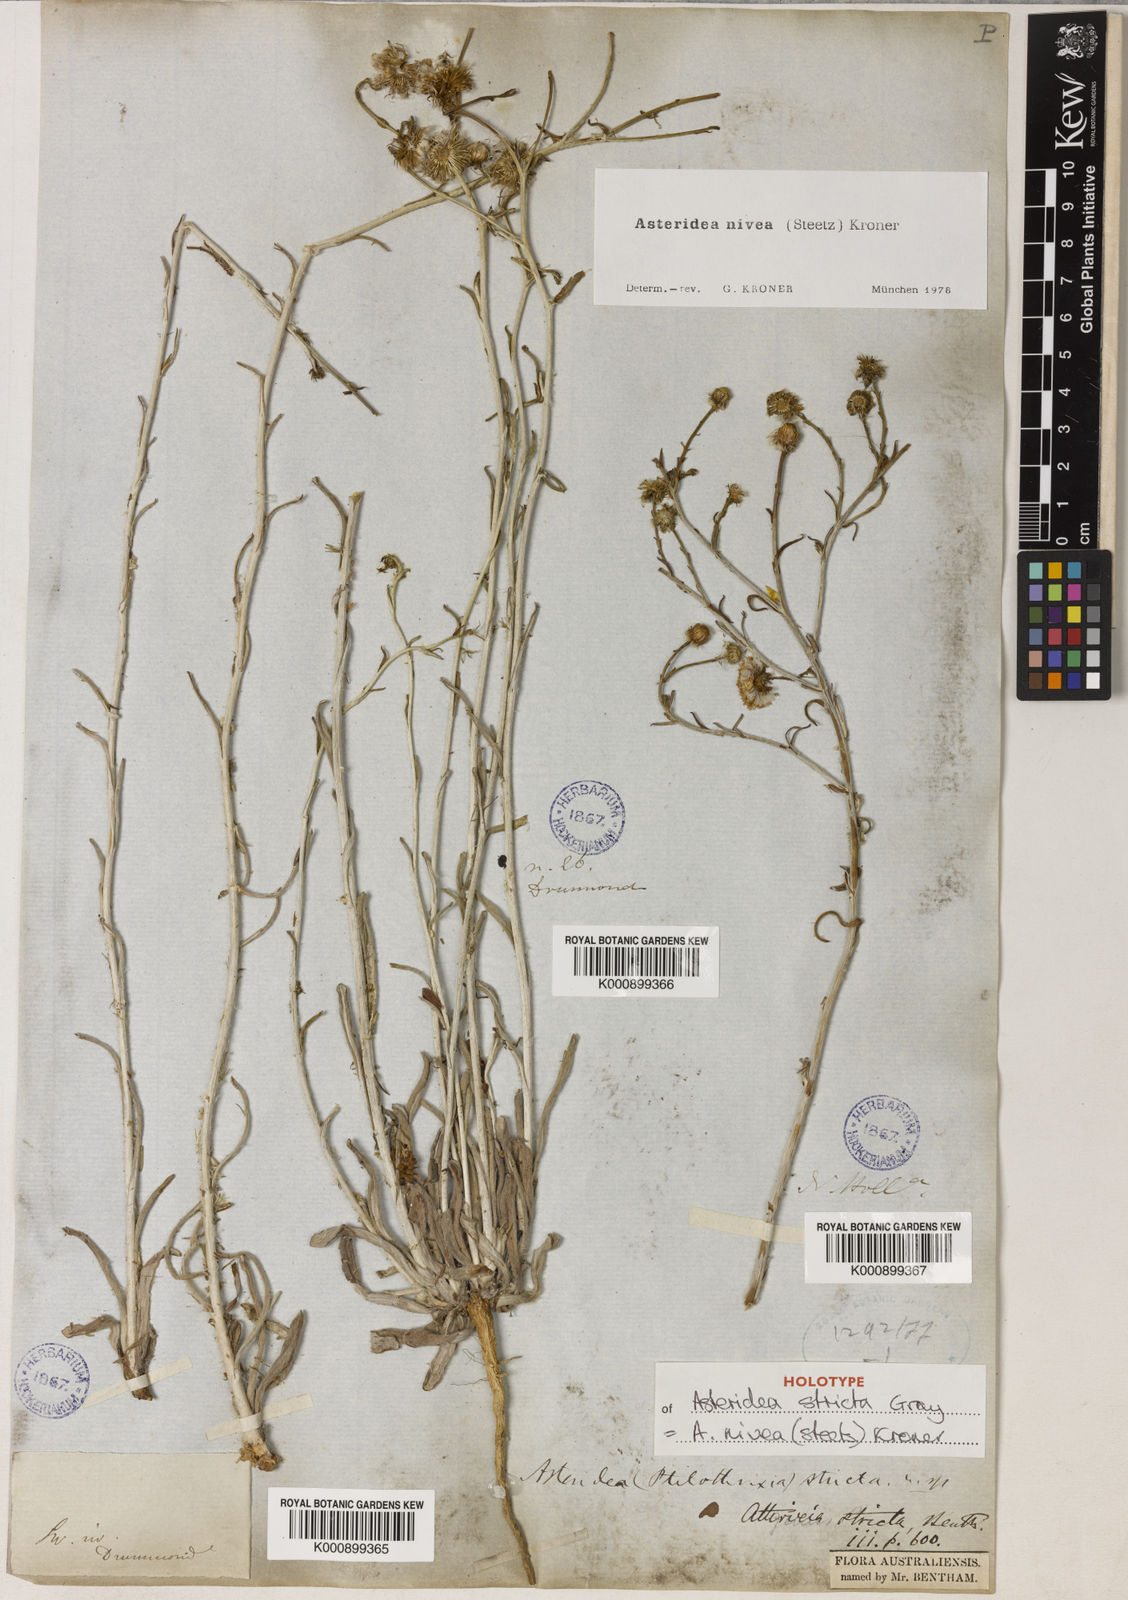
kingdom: Plantae
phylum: Tracheophyta
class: Magnoliopsida
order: Asterales
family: Asteraceae
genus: Asteridea
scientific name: Asteridea nivea
